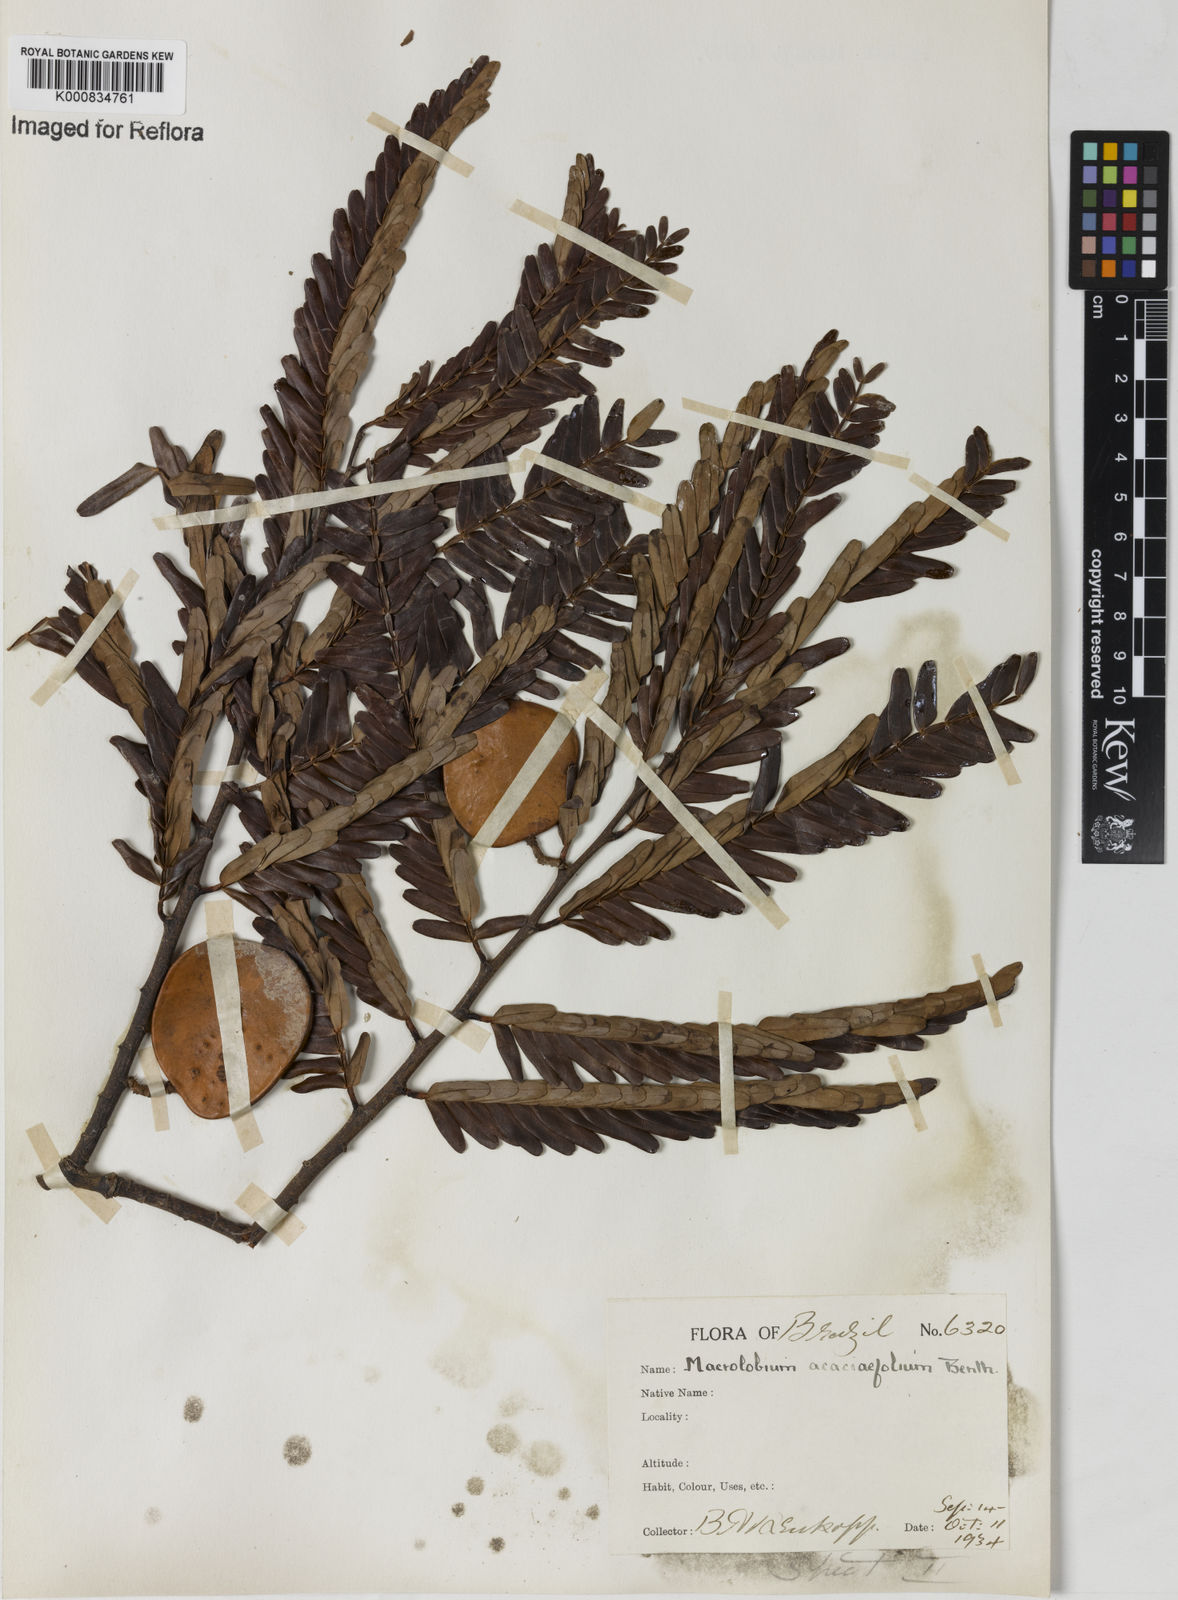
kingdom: Plantae
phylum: Tracheophyta
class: Magnoliopsida
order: Fabales
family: Fabaceae
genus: Macrolobium
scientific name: Macrolobium acaciifolium
